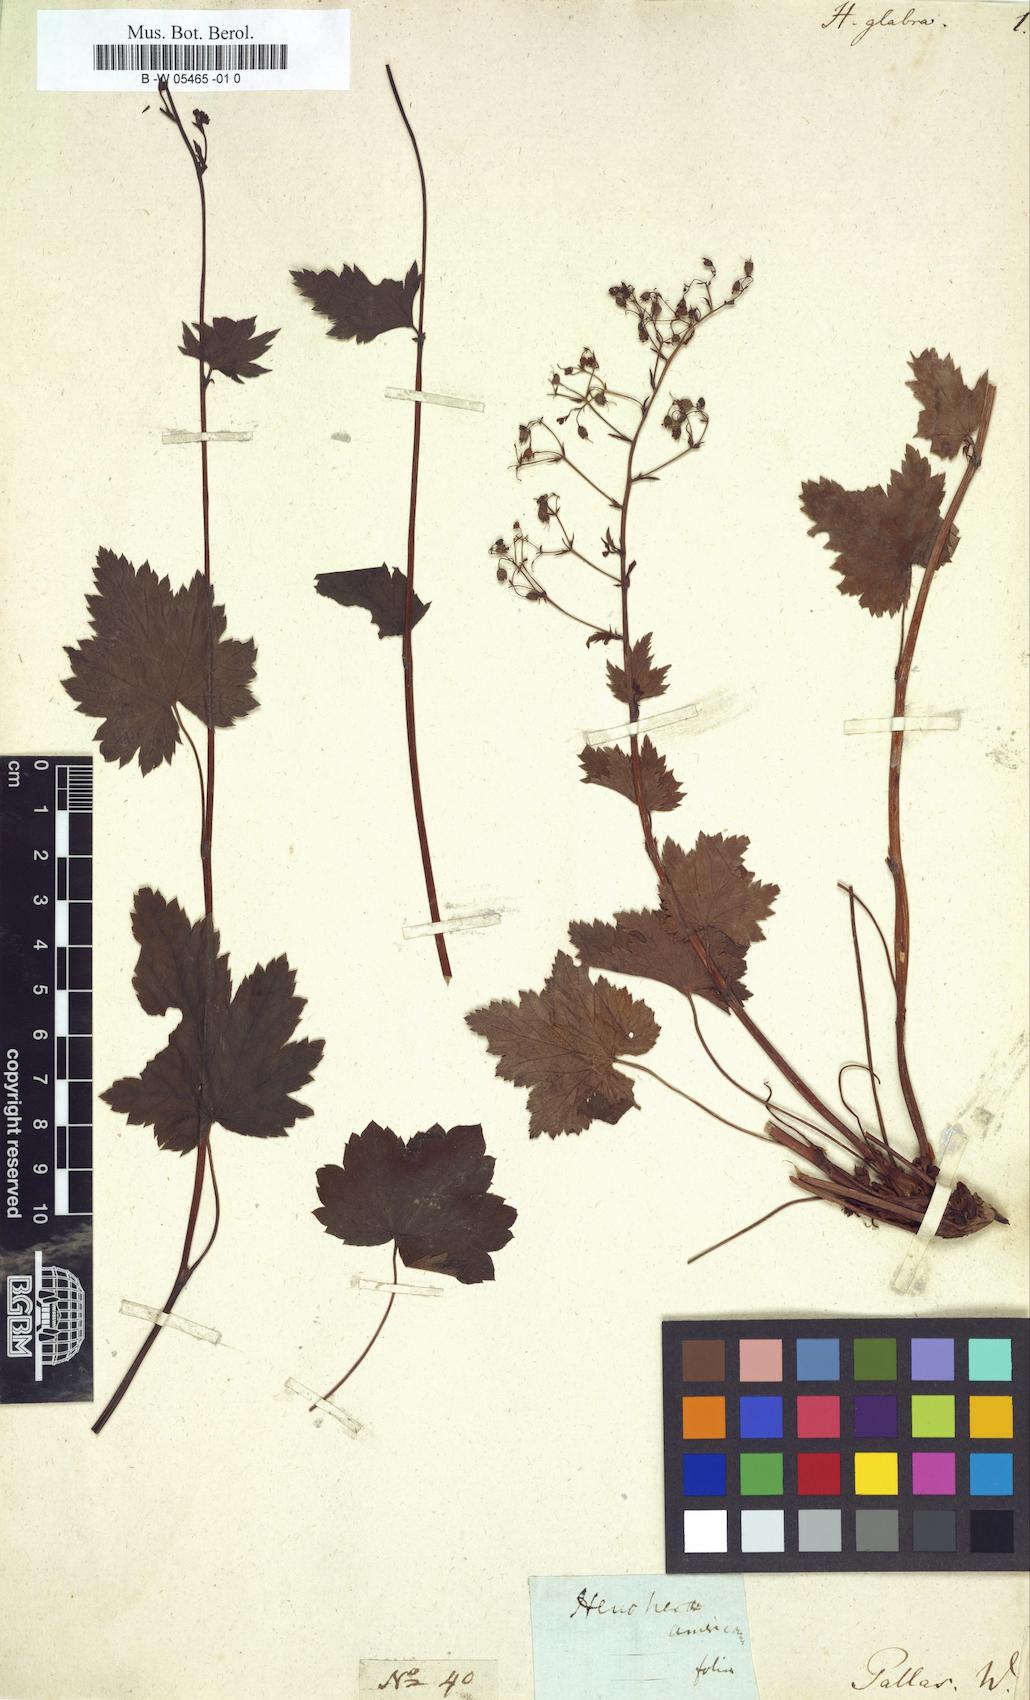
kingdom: Plantae
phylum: Tracheophyta
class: Magnoliopsida
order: Saxifragales
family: Saxifragaceae
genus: Heuchera
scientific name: Heuchera glabra
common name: Alpine alumroot
